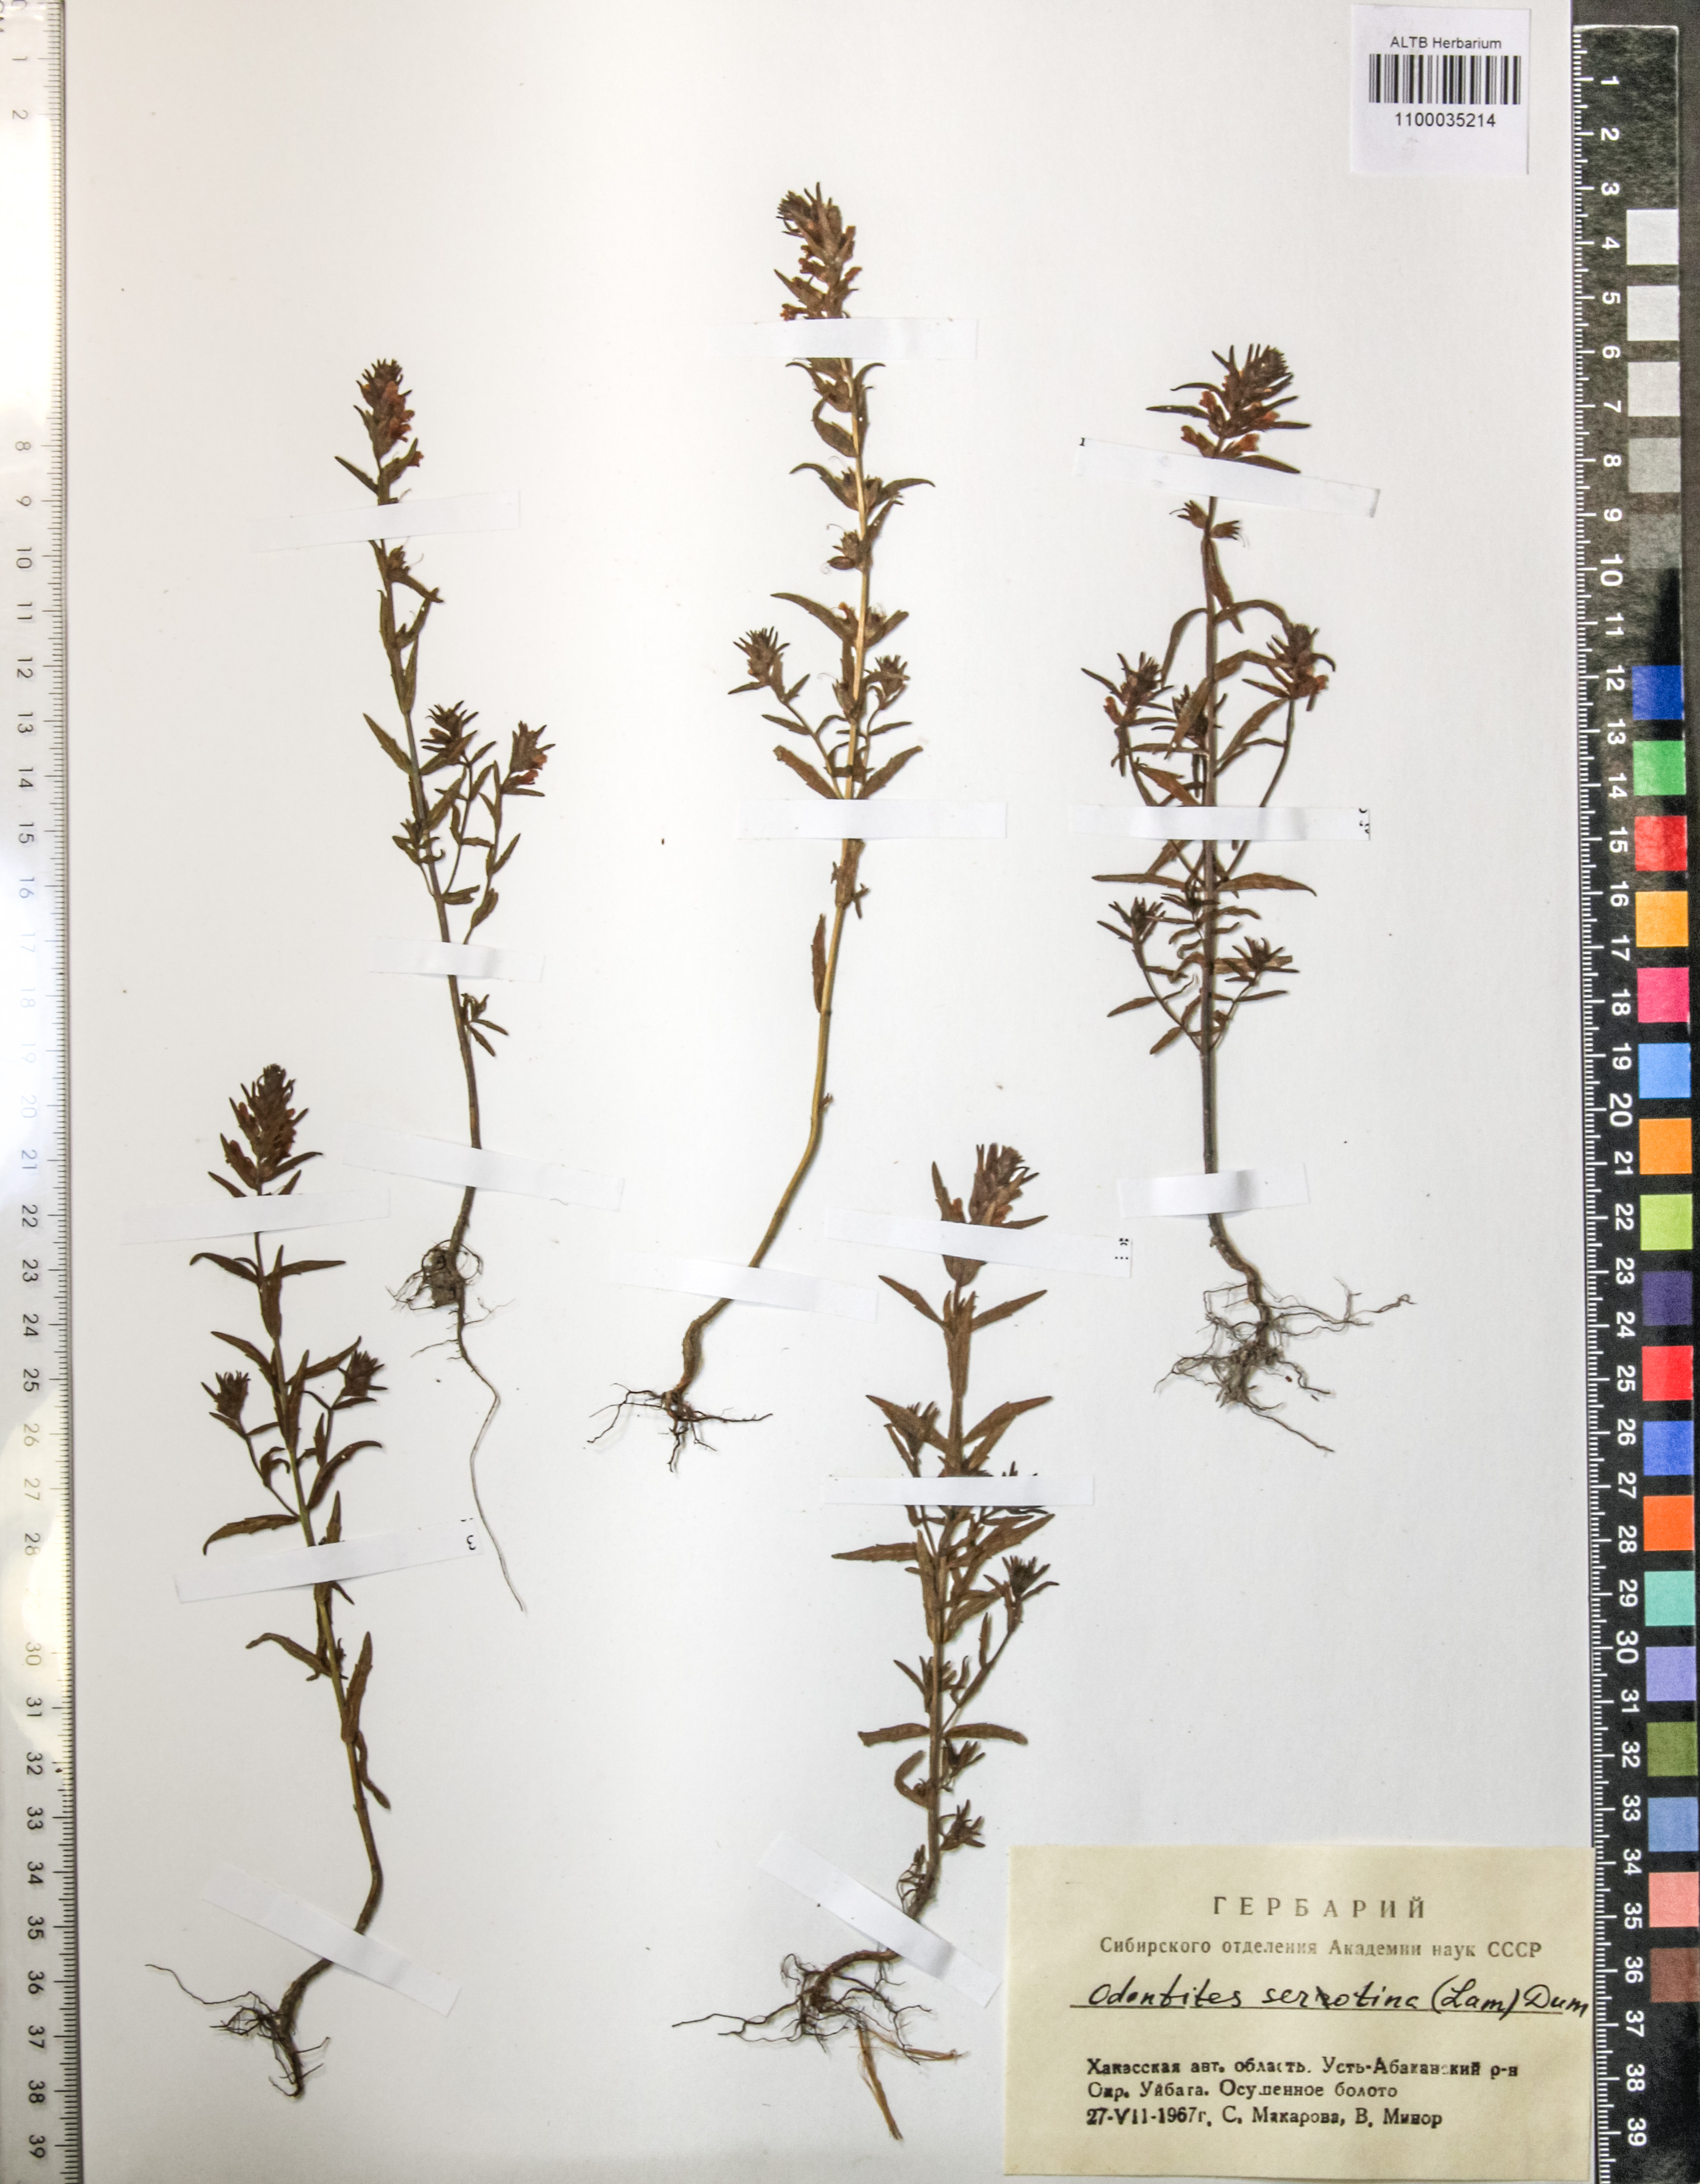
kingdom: Plantae
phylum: Tracheophyta
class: Magnoliopsida
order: Lamiales
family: Orobanchaceae
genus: Odontites
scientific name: Odontites vulgaris
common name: Broomrape
